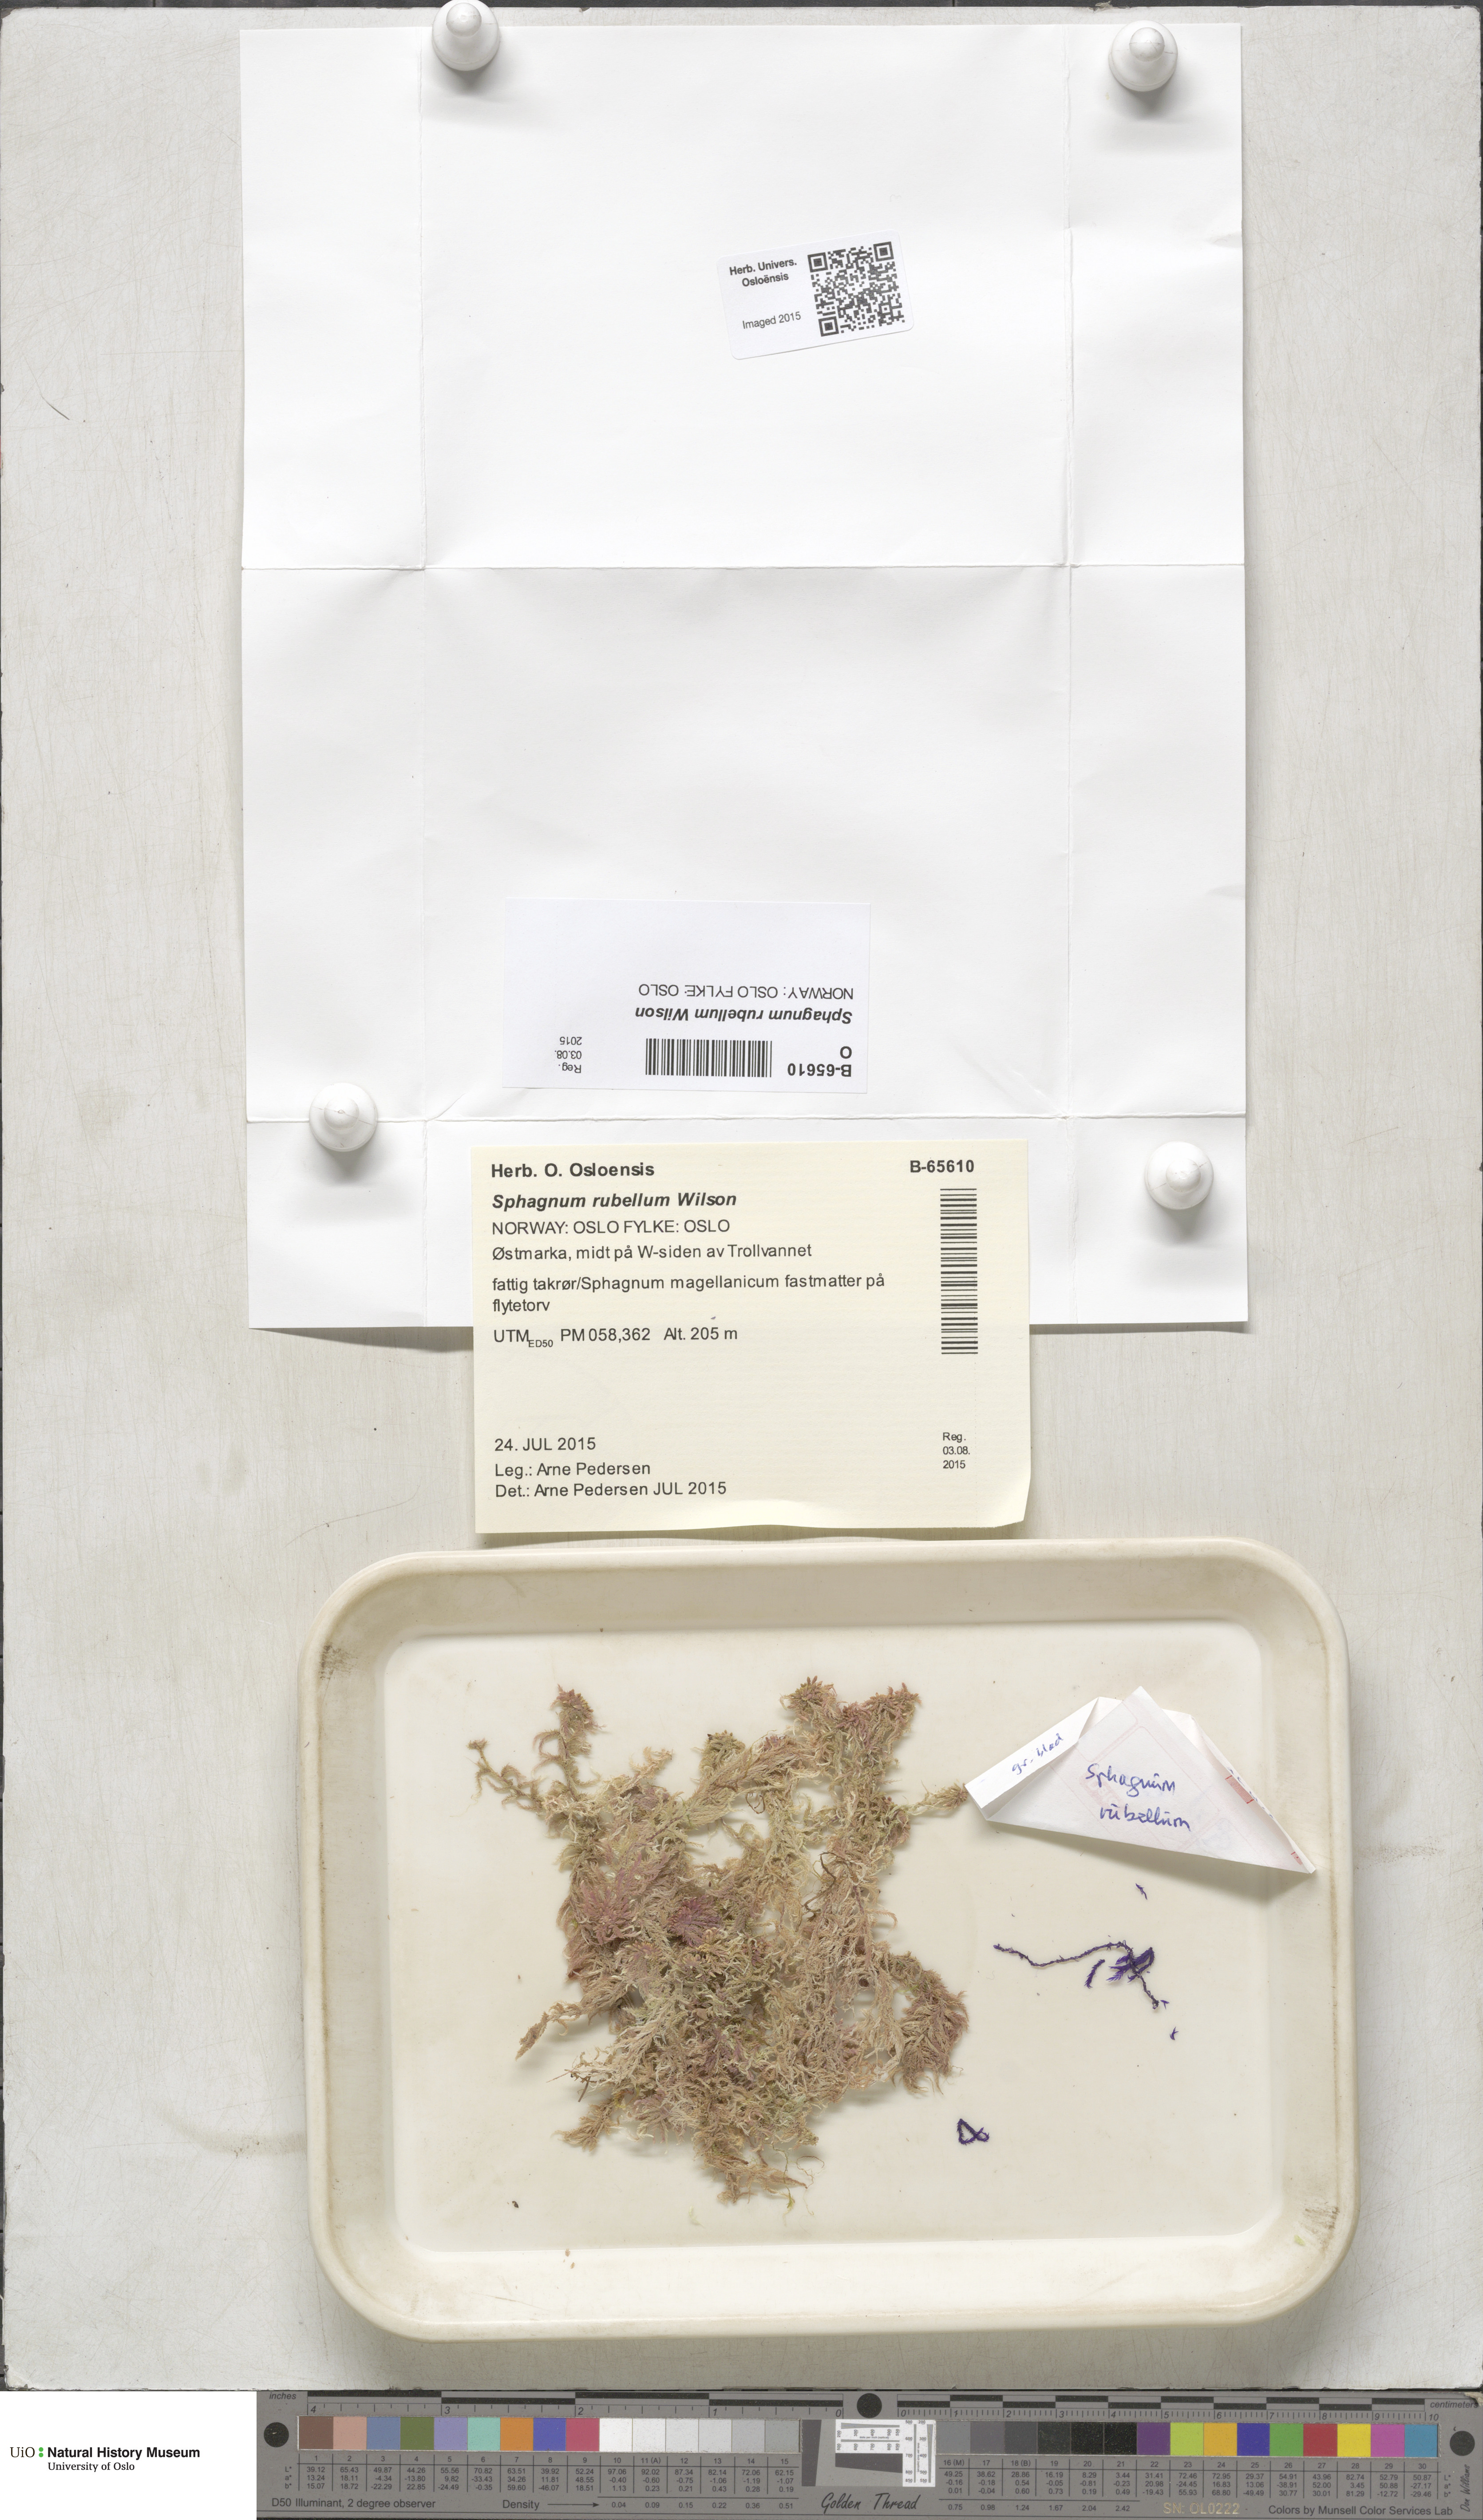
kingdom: Plantae
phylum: Bryophyta
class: Sphagnopsida
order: Sphagnales
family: Sphagnaceae
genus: Sphagnum
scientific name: Sphagnum rubellum
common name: Red peat moss
